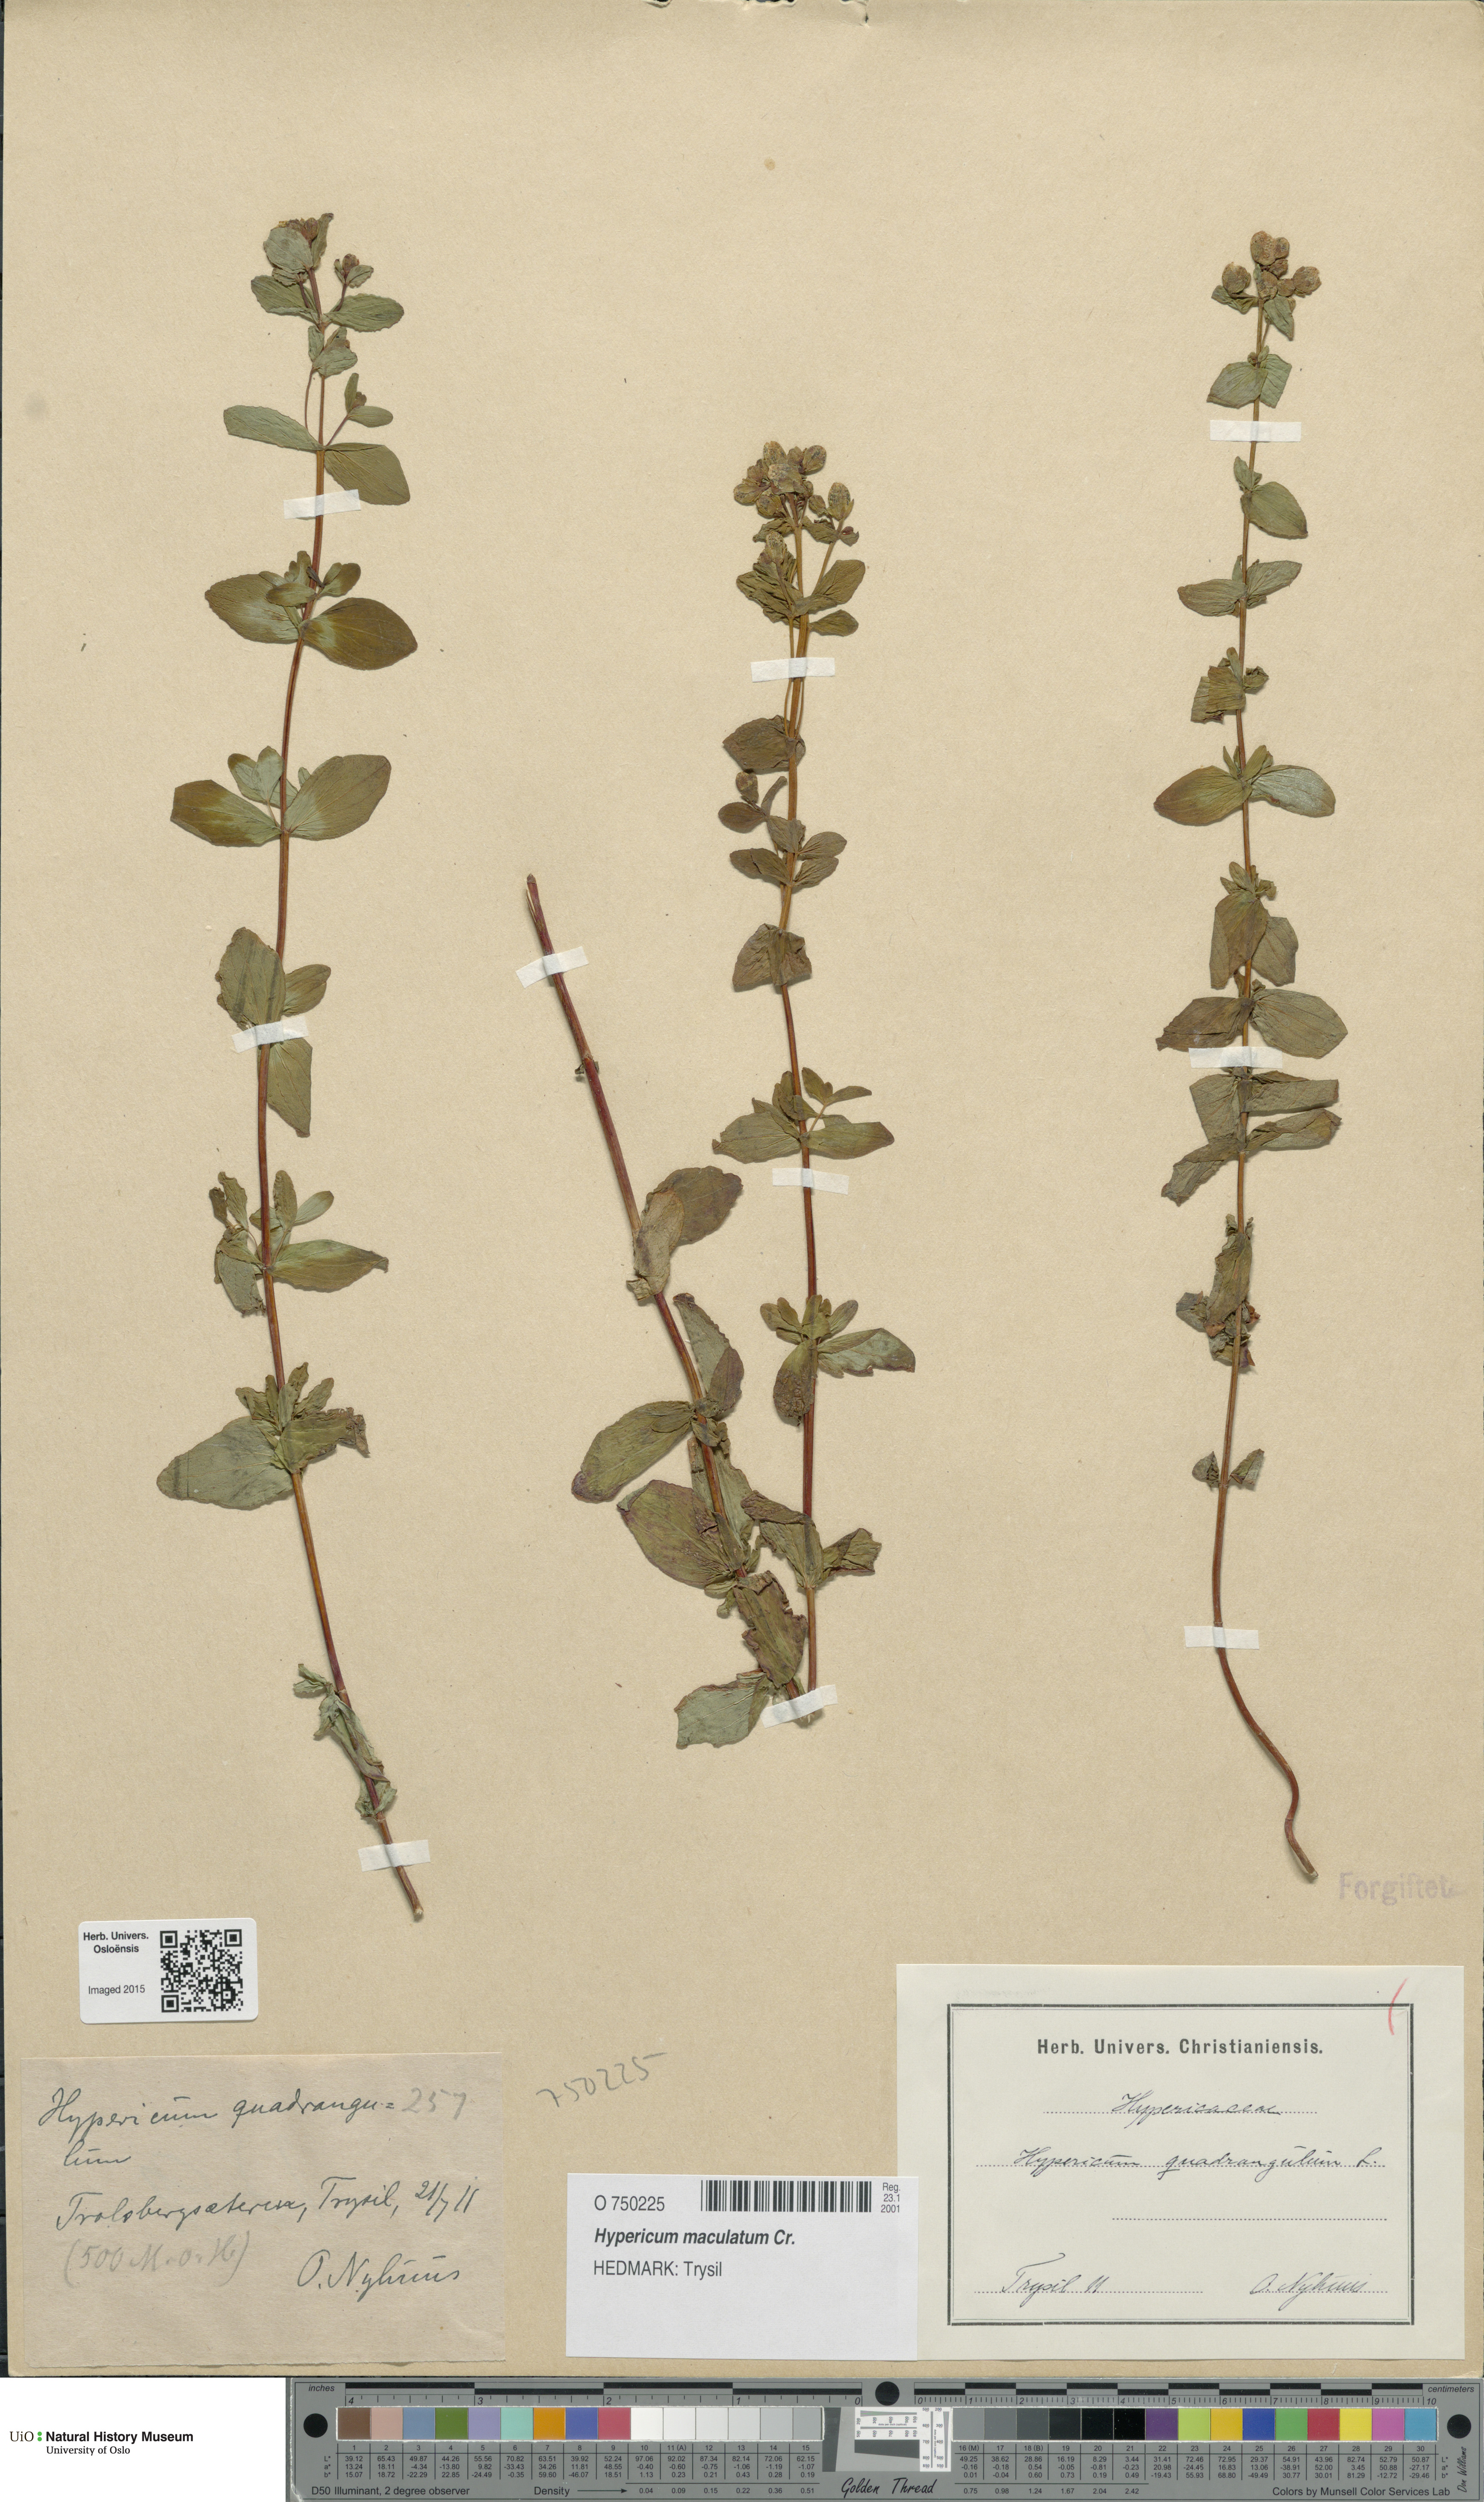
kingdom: Plantae
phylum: Tracheophyta
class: Magnoliopsida
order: Malpighiales
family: Hypericaceae
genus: Hypericum
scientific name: Hypericum maculatum
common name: Imperforate st. john's-wort
